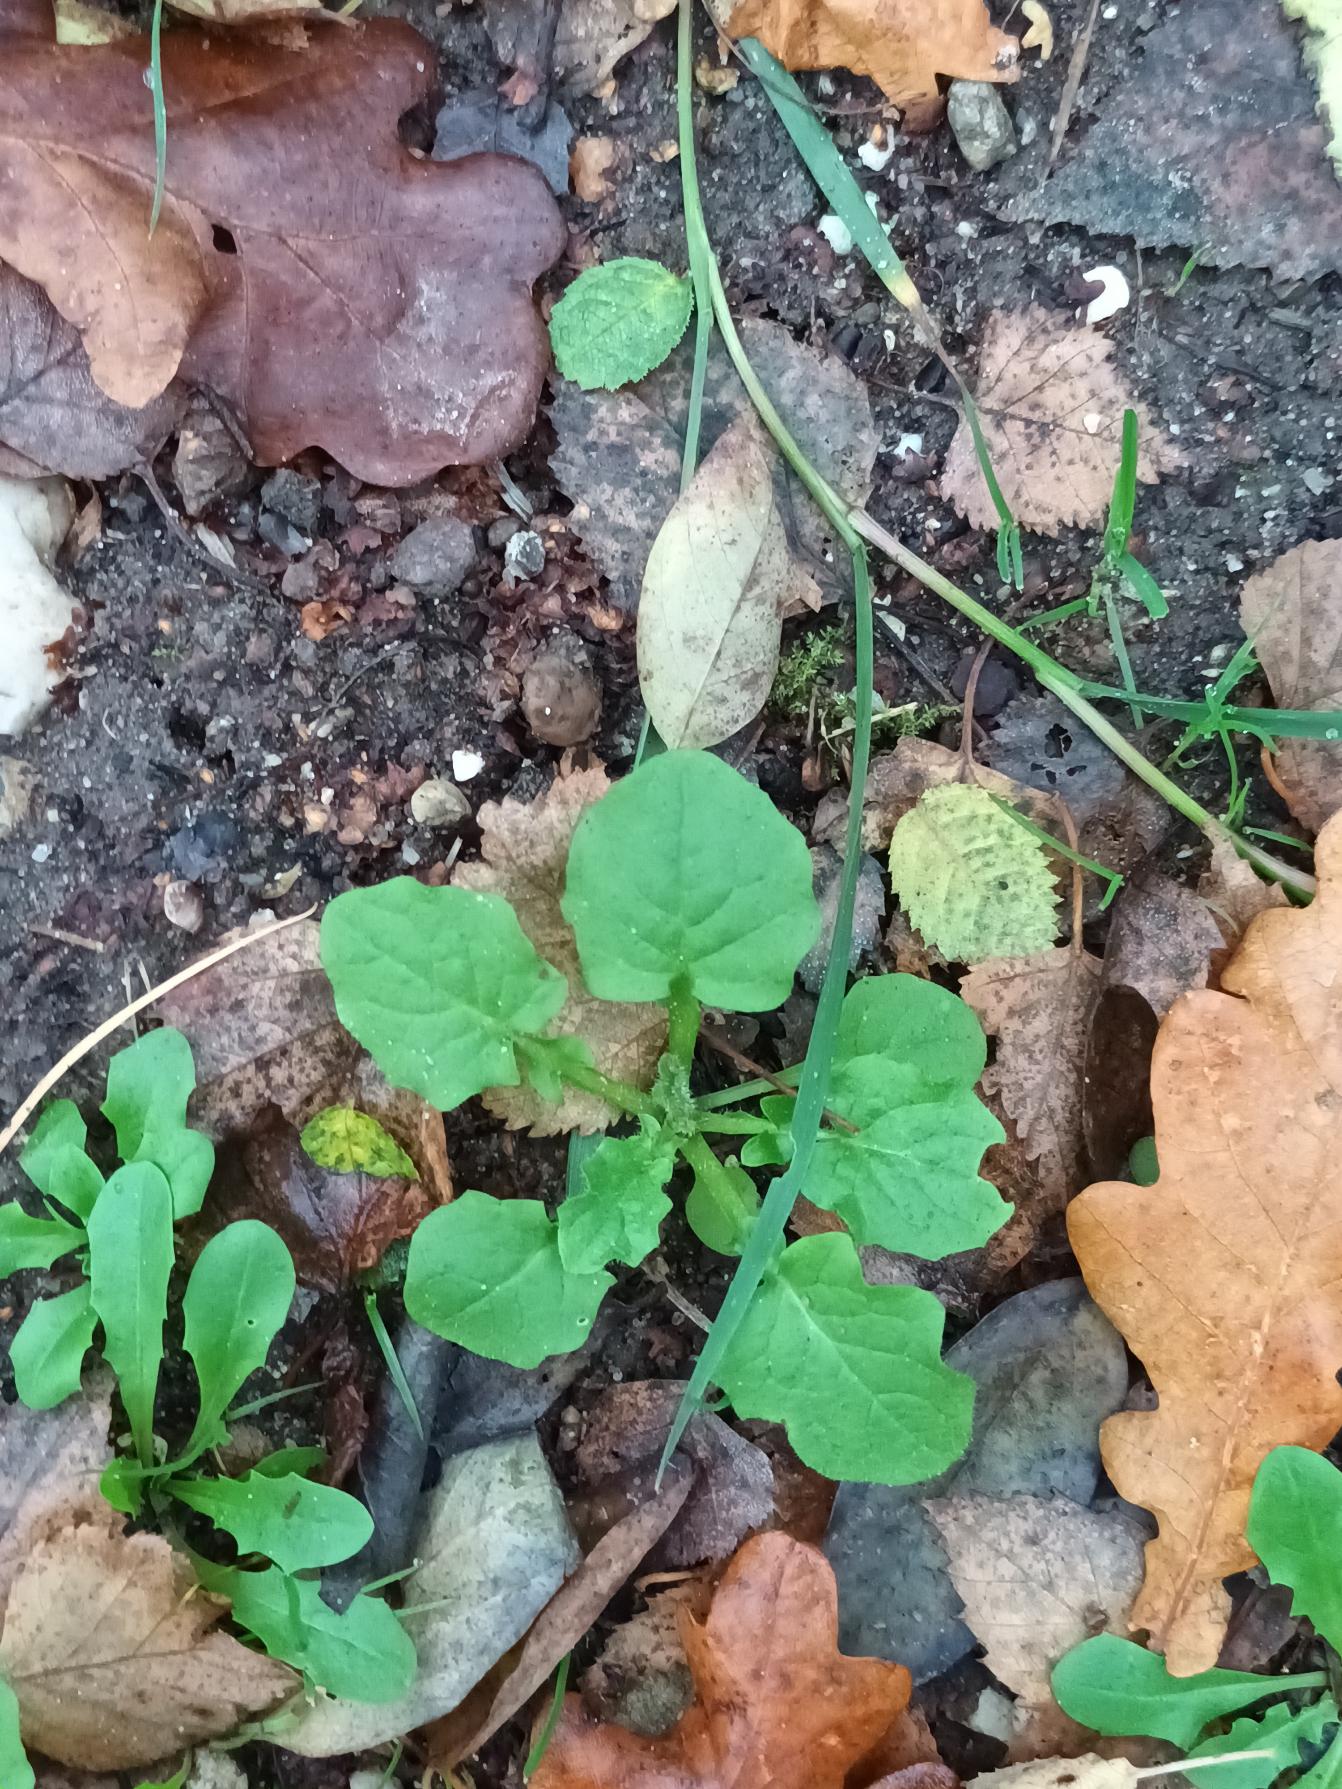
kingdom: Plantae
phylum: Tracheophyta
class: Magnoliopsida
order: Asterales
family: Asteraceae
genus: Lapsana
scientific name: Lapsana communis
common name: Haremad
